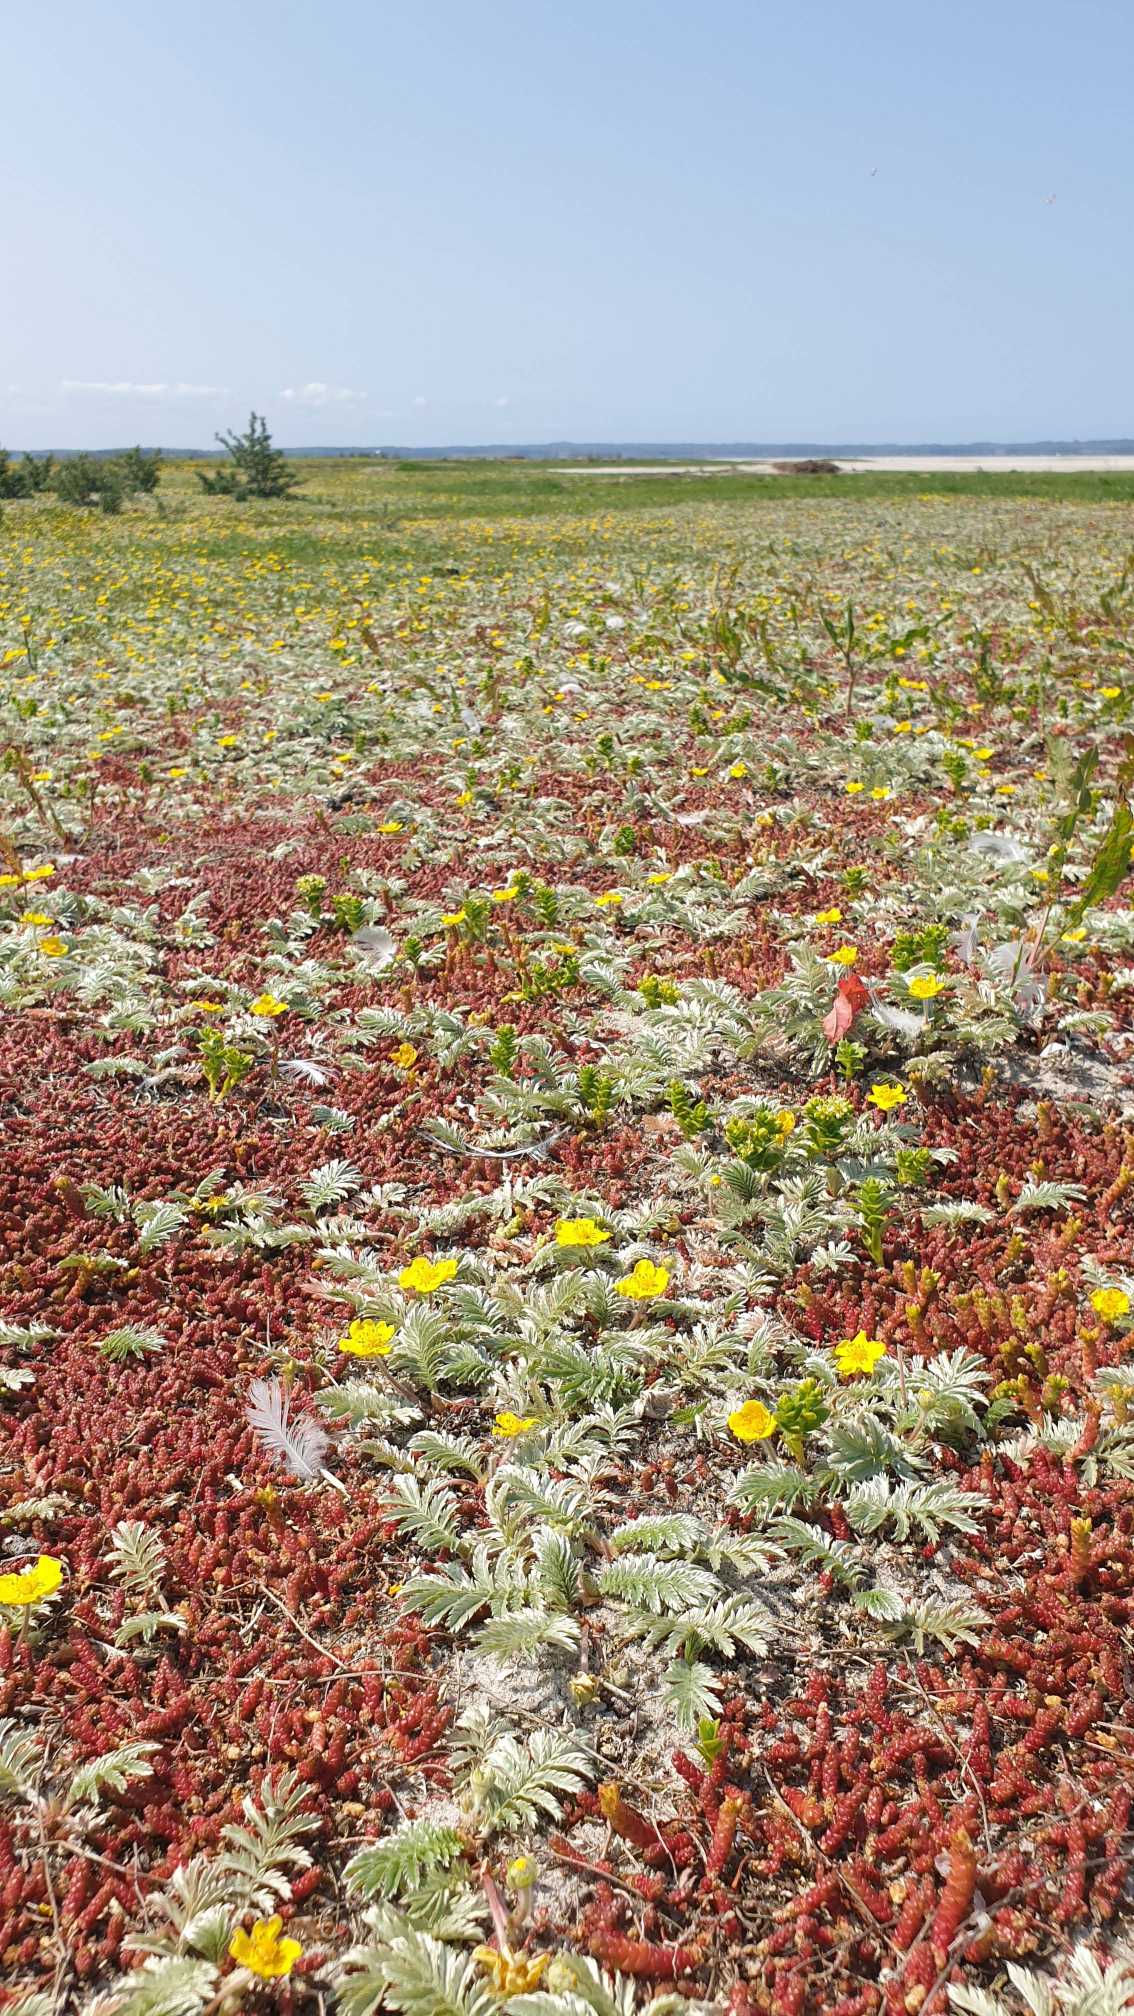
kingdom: Plantae
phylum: Tracheophyta
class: Magnoliopsida
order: Rosales
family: Rosaceae
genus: Argentina
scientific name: Argentina anserina
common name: Gåsepotentil
